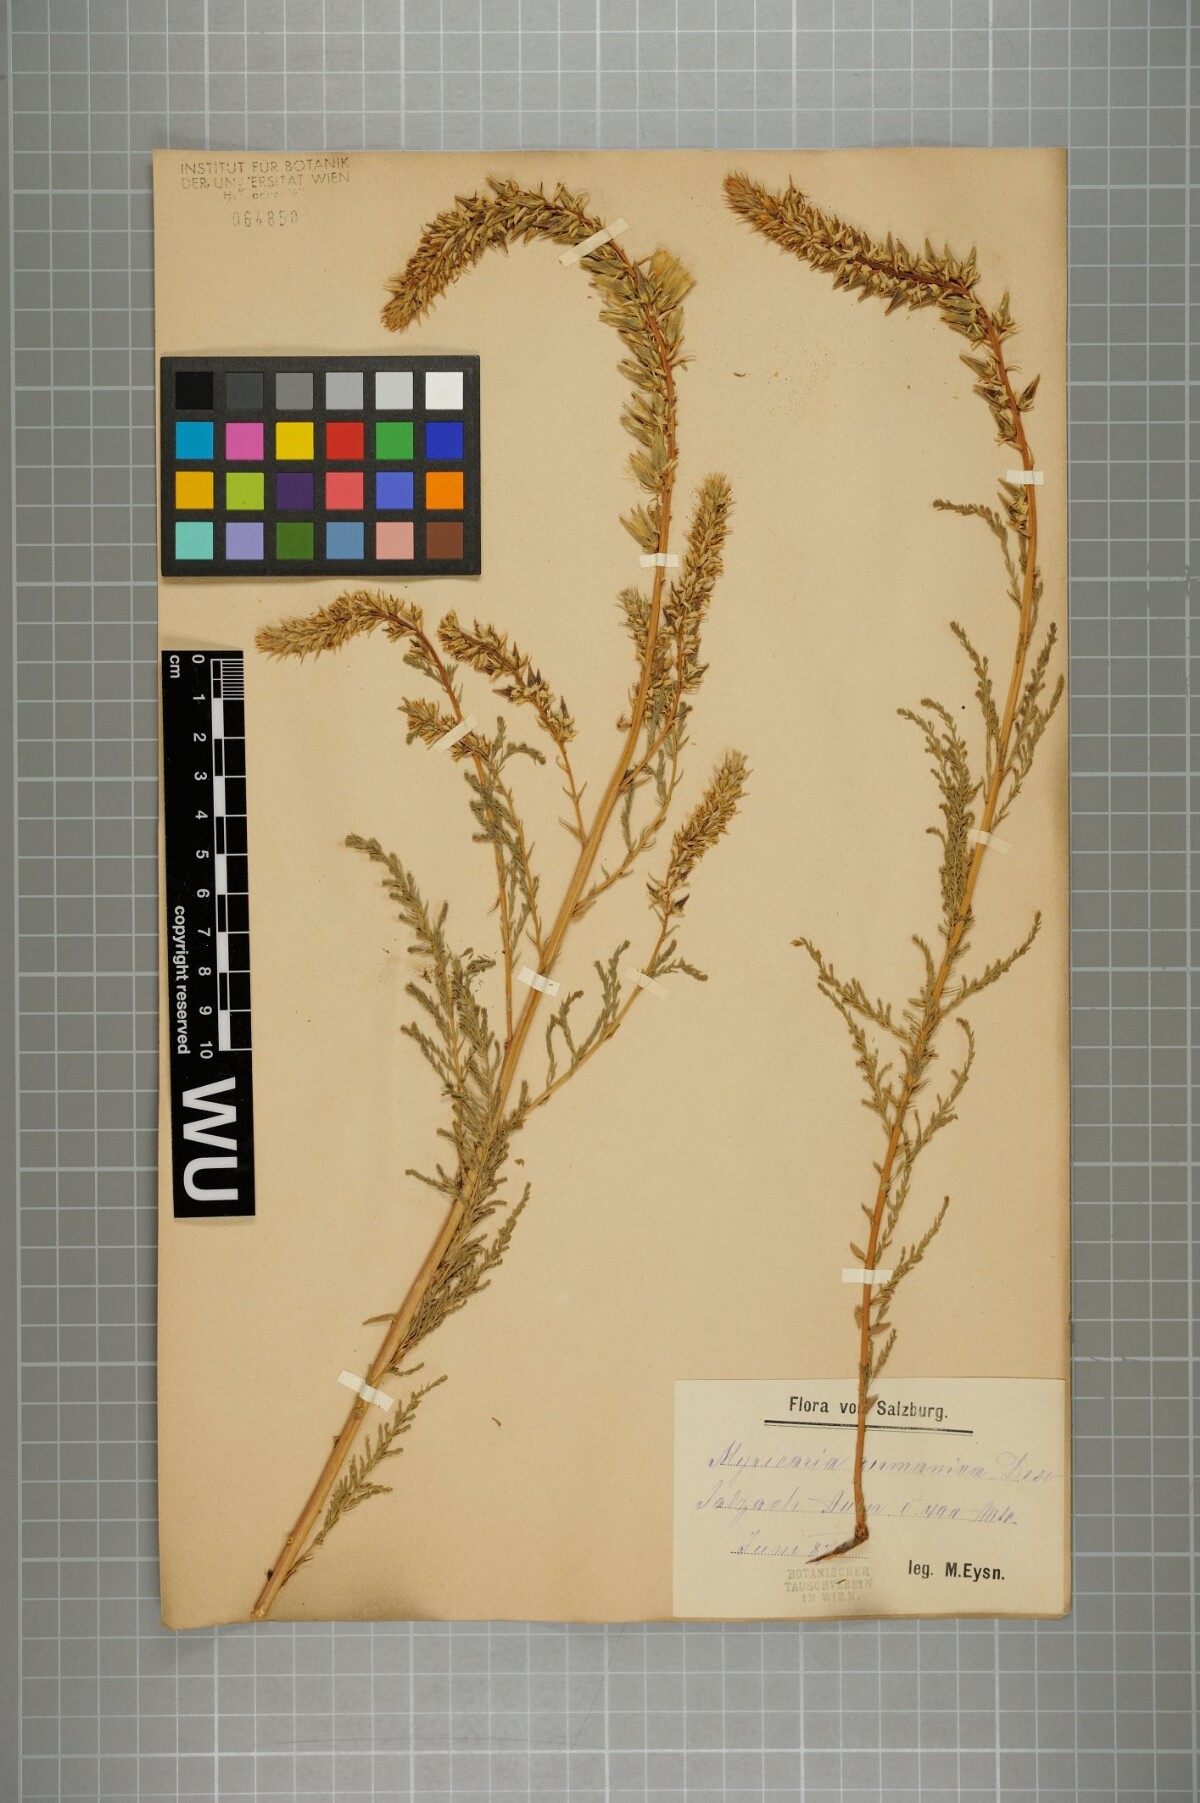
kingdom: Plantae
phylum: Tracheophyta
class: Magnoliopsida
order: Caryophyllales
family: Tamaricaceae
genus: Myricaria
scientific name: Myricaria germanica
